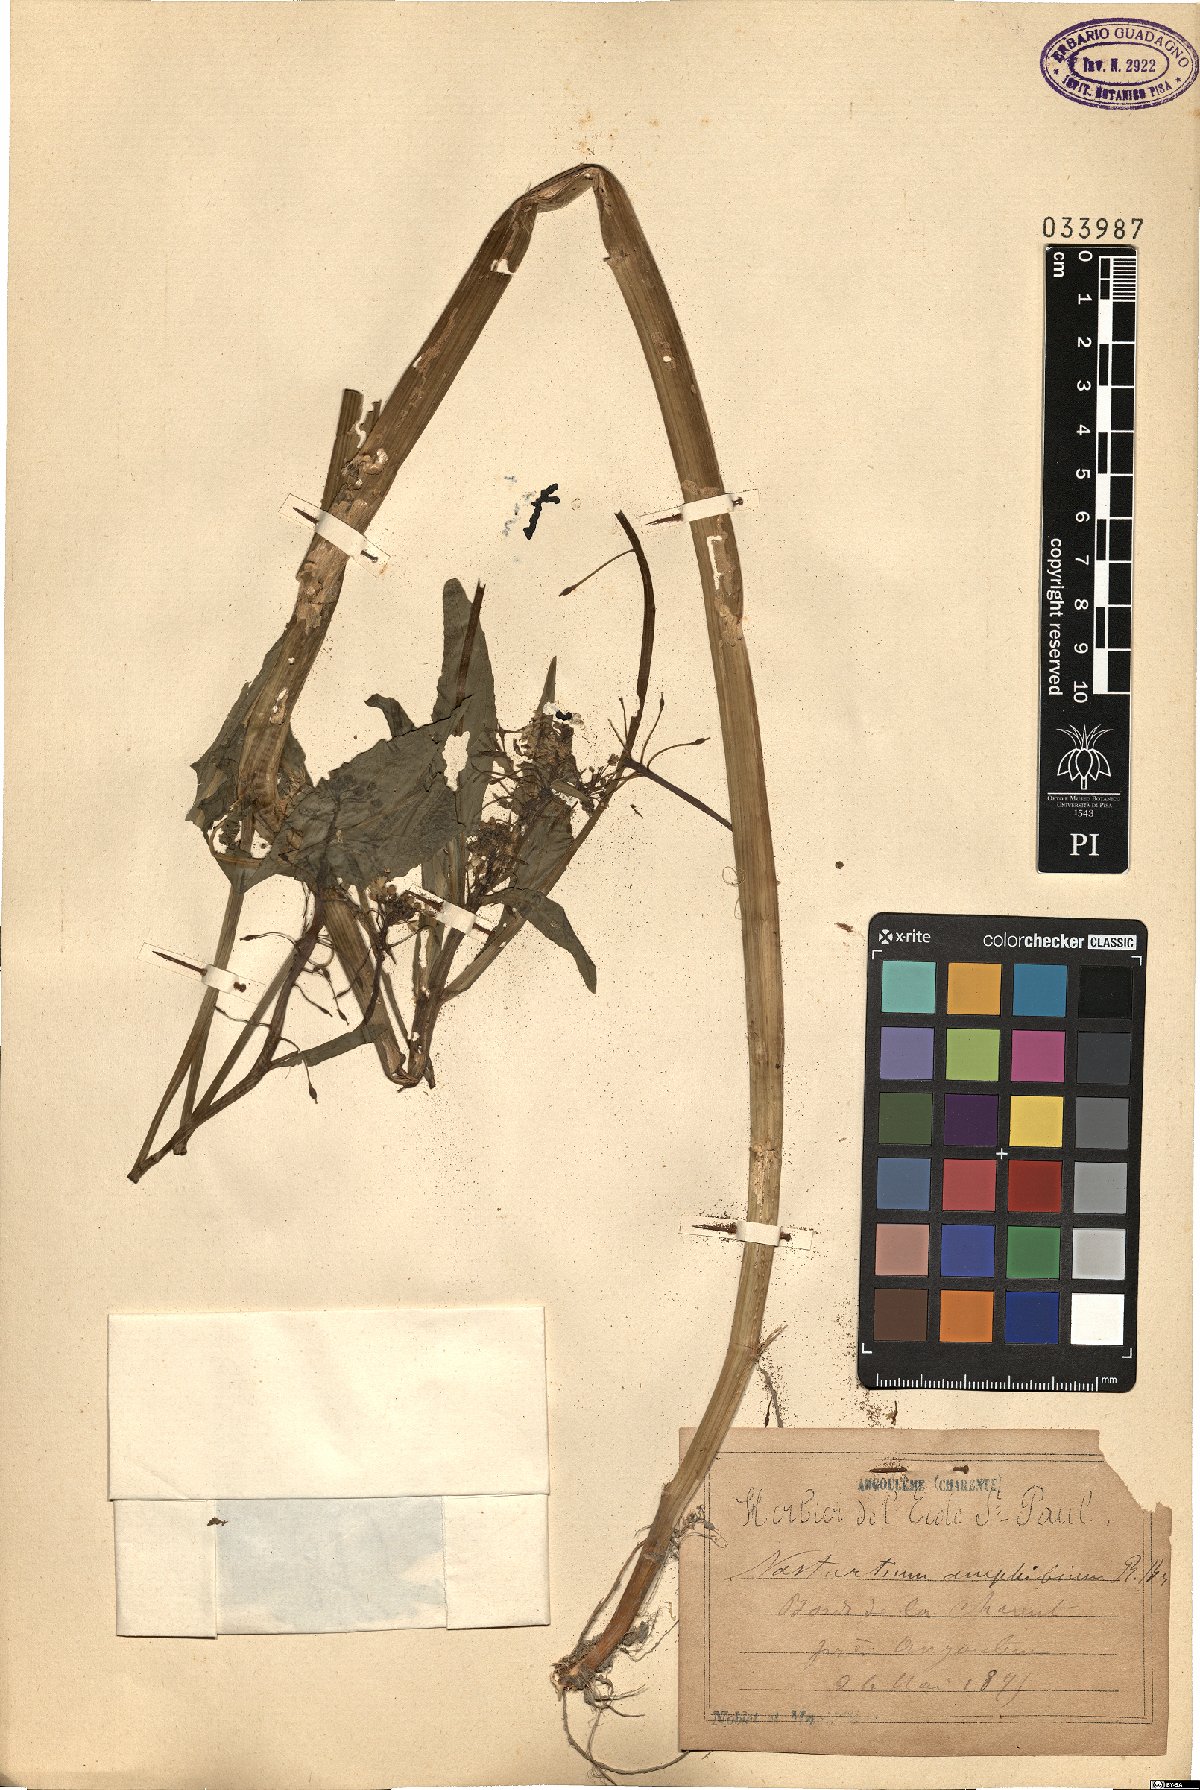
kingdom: Plantae
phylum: Tracheophyta
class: Magnoliopsida
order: Brassicales
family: Brassicaceae
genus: Rorippa
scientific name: Rorippa amphibia
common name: Great yellow-cress
